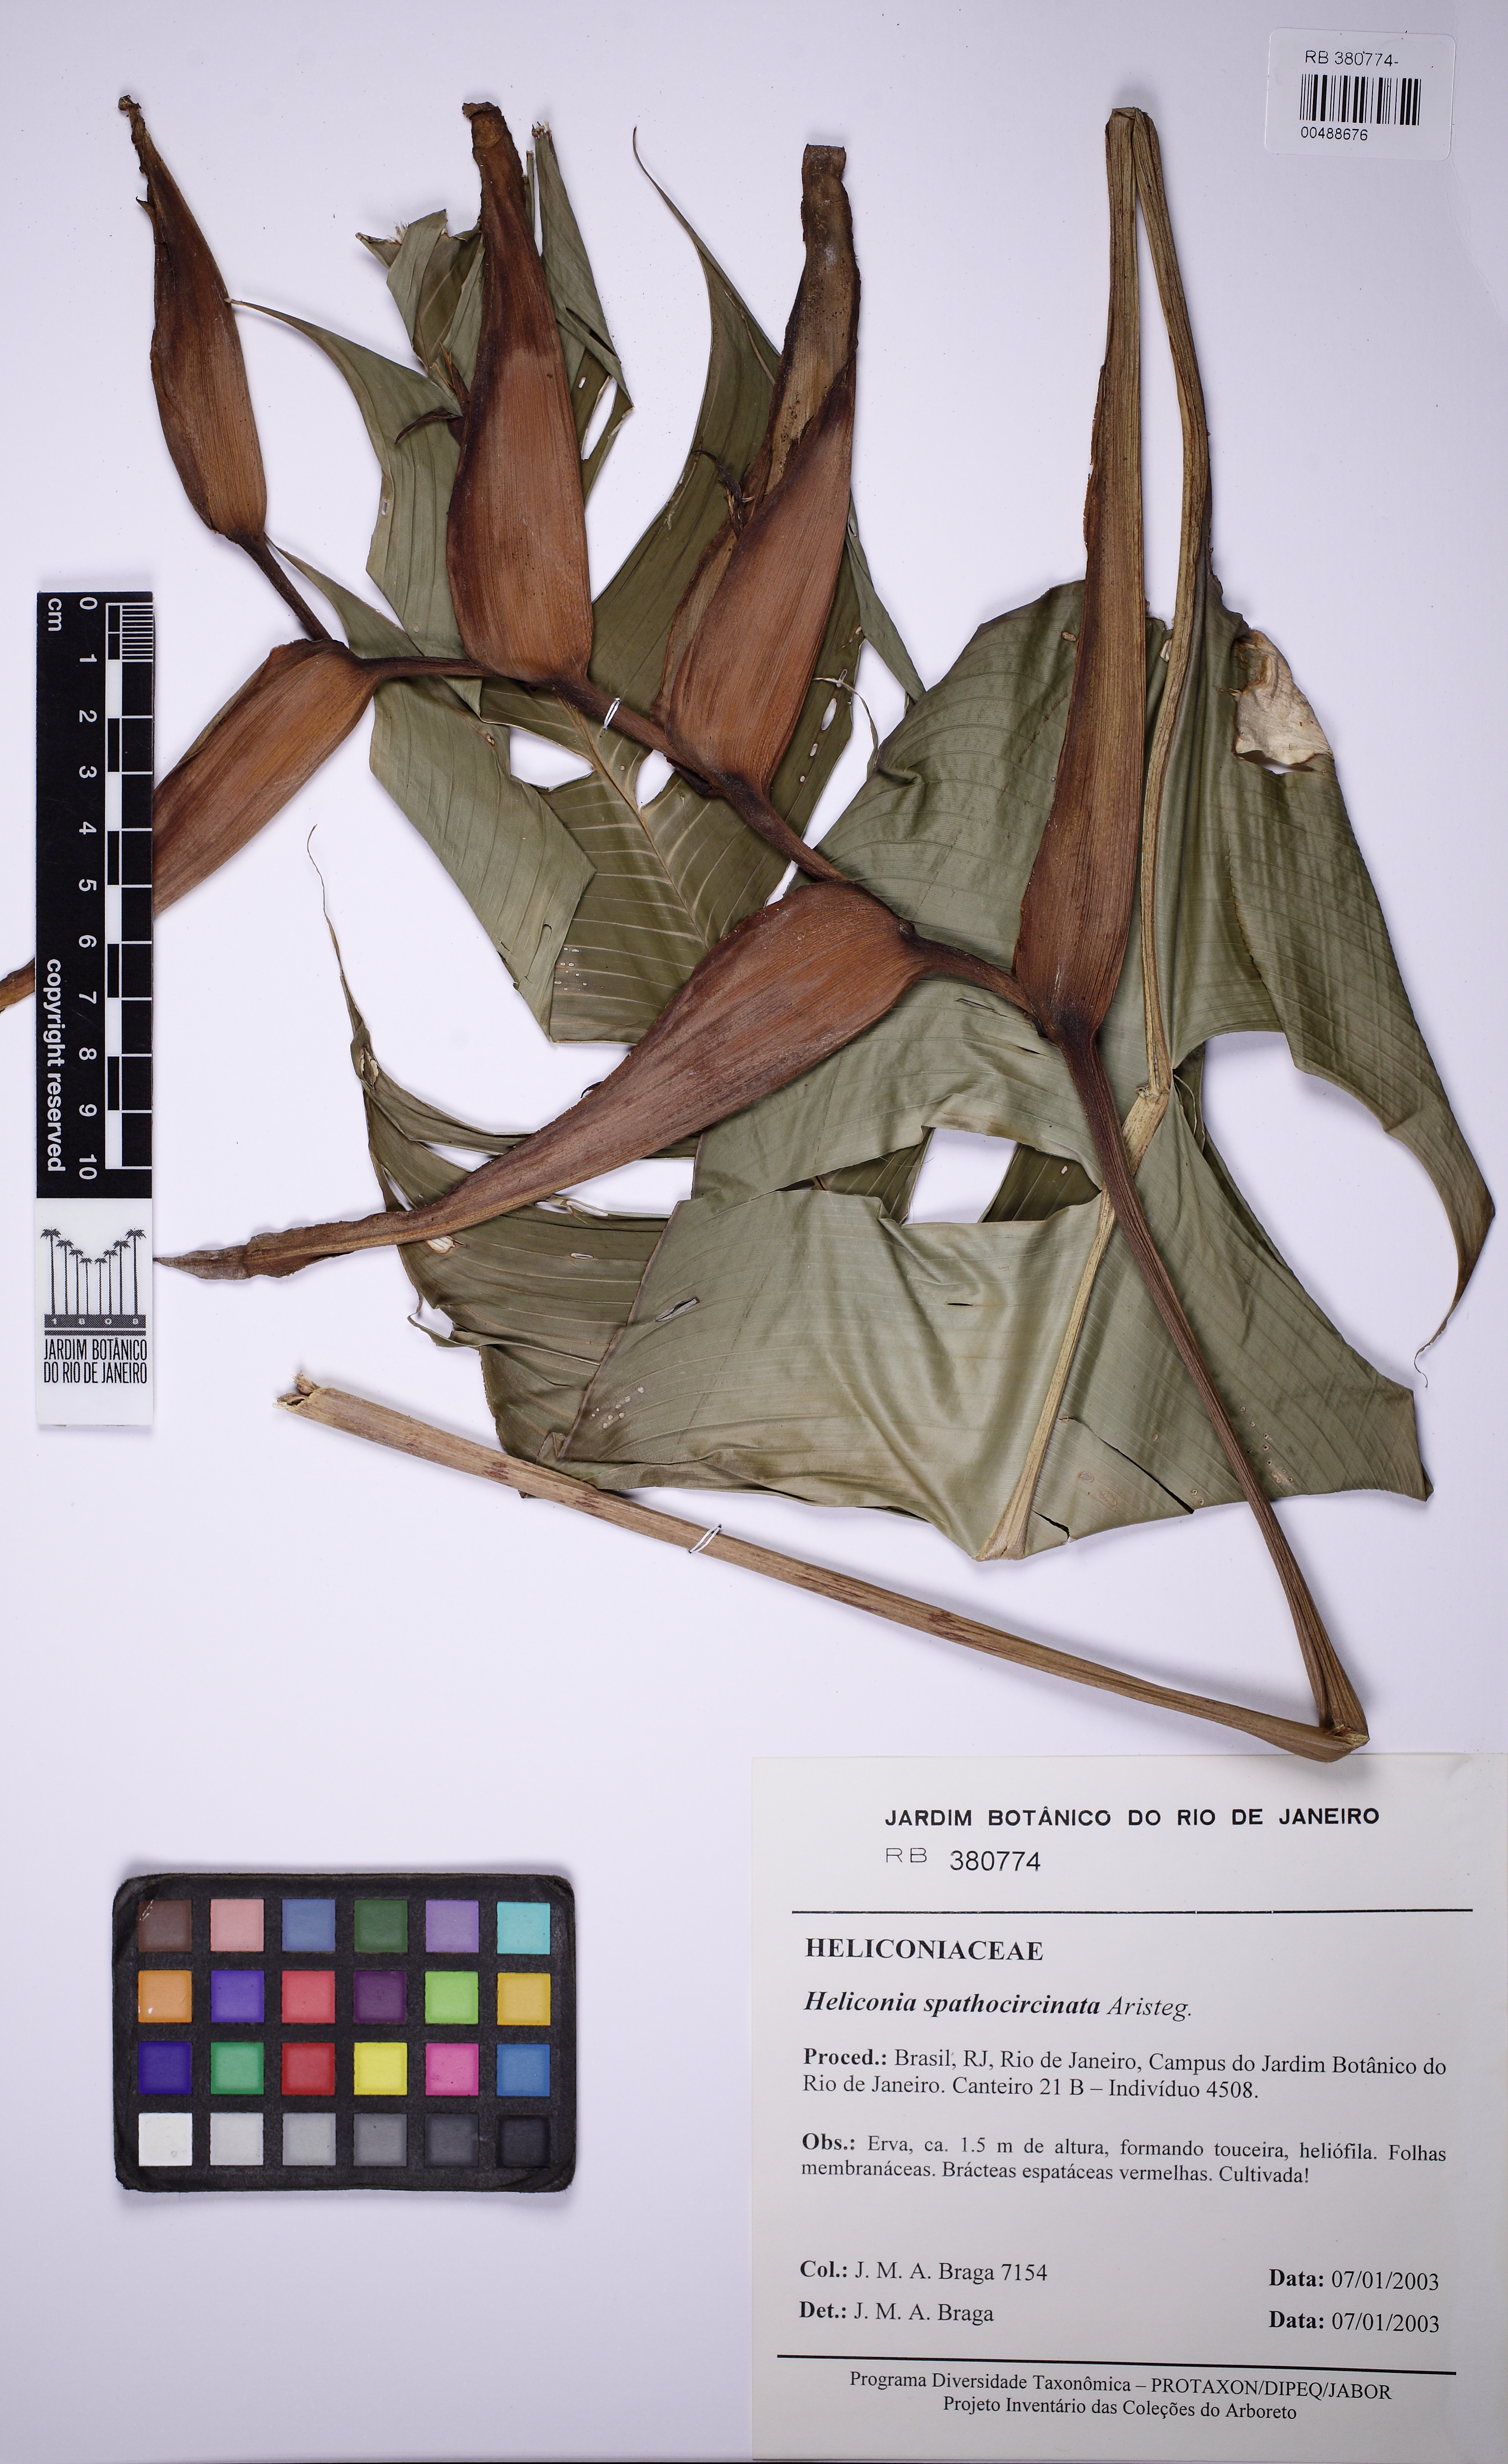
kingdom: Plantae
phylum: Tracheophyta
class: Liliopsida
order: Zingiberales
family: Heliconiaceae
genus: Heliconia
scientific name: Heliconia spathocircinata
